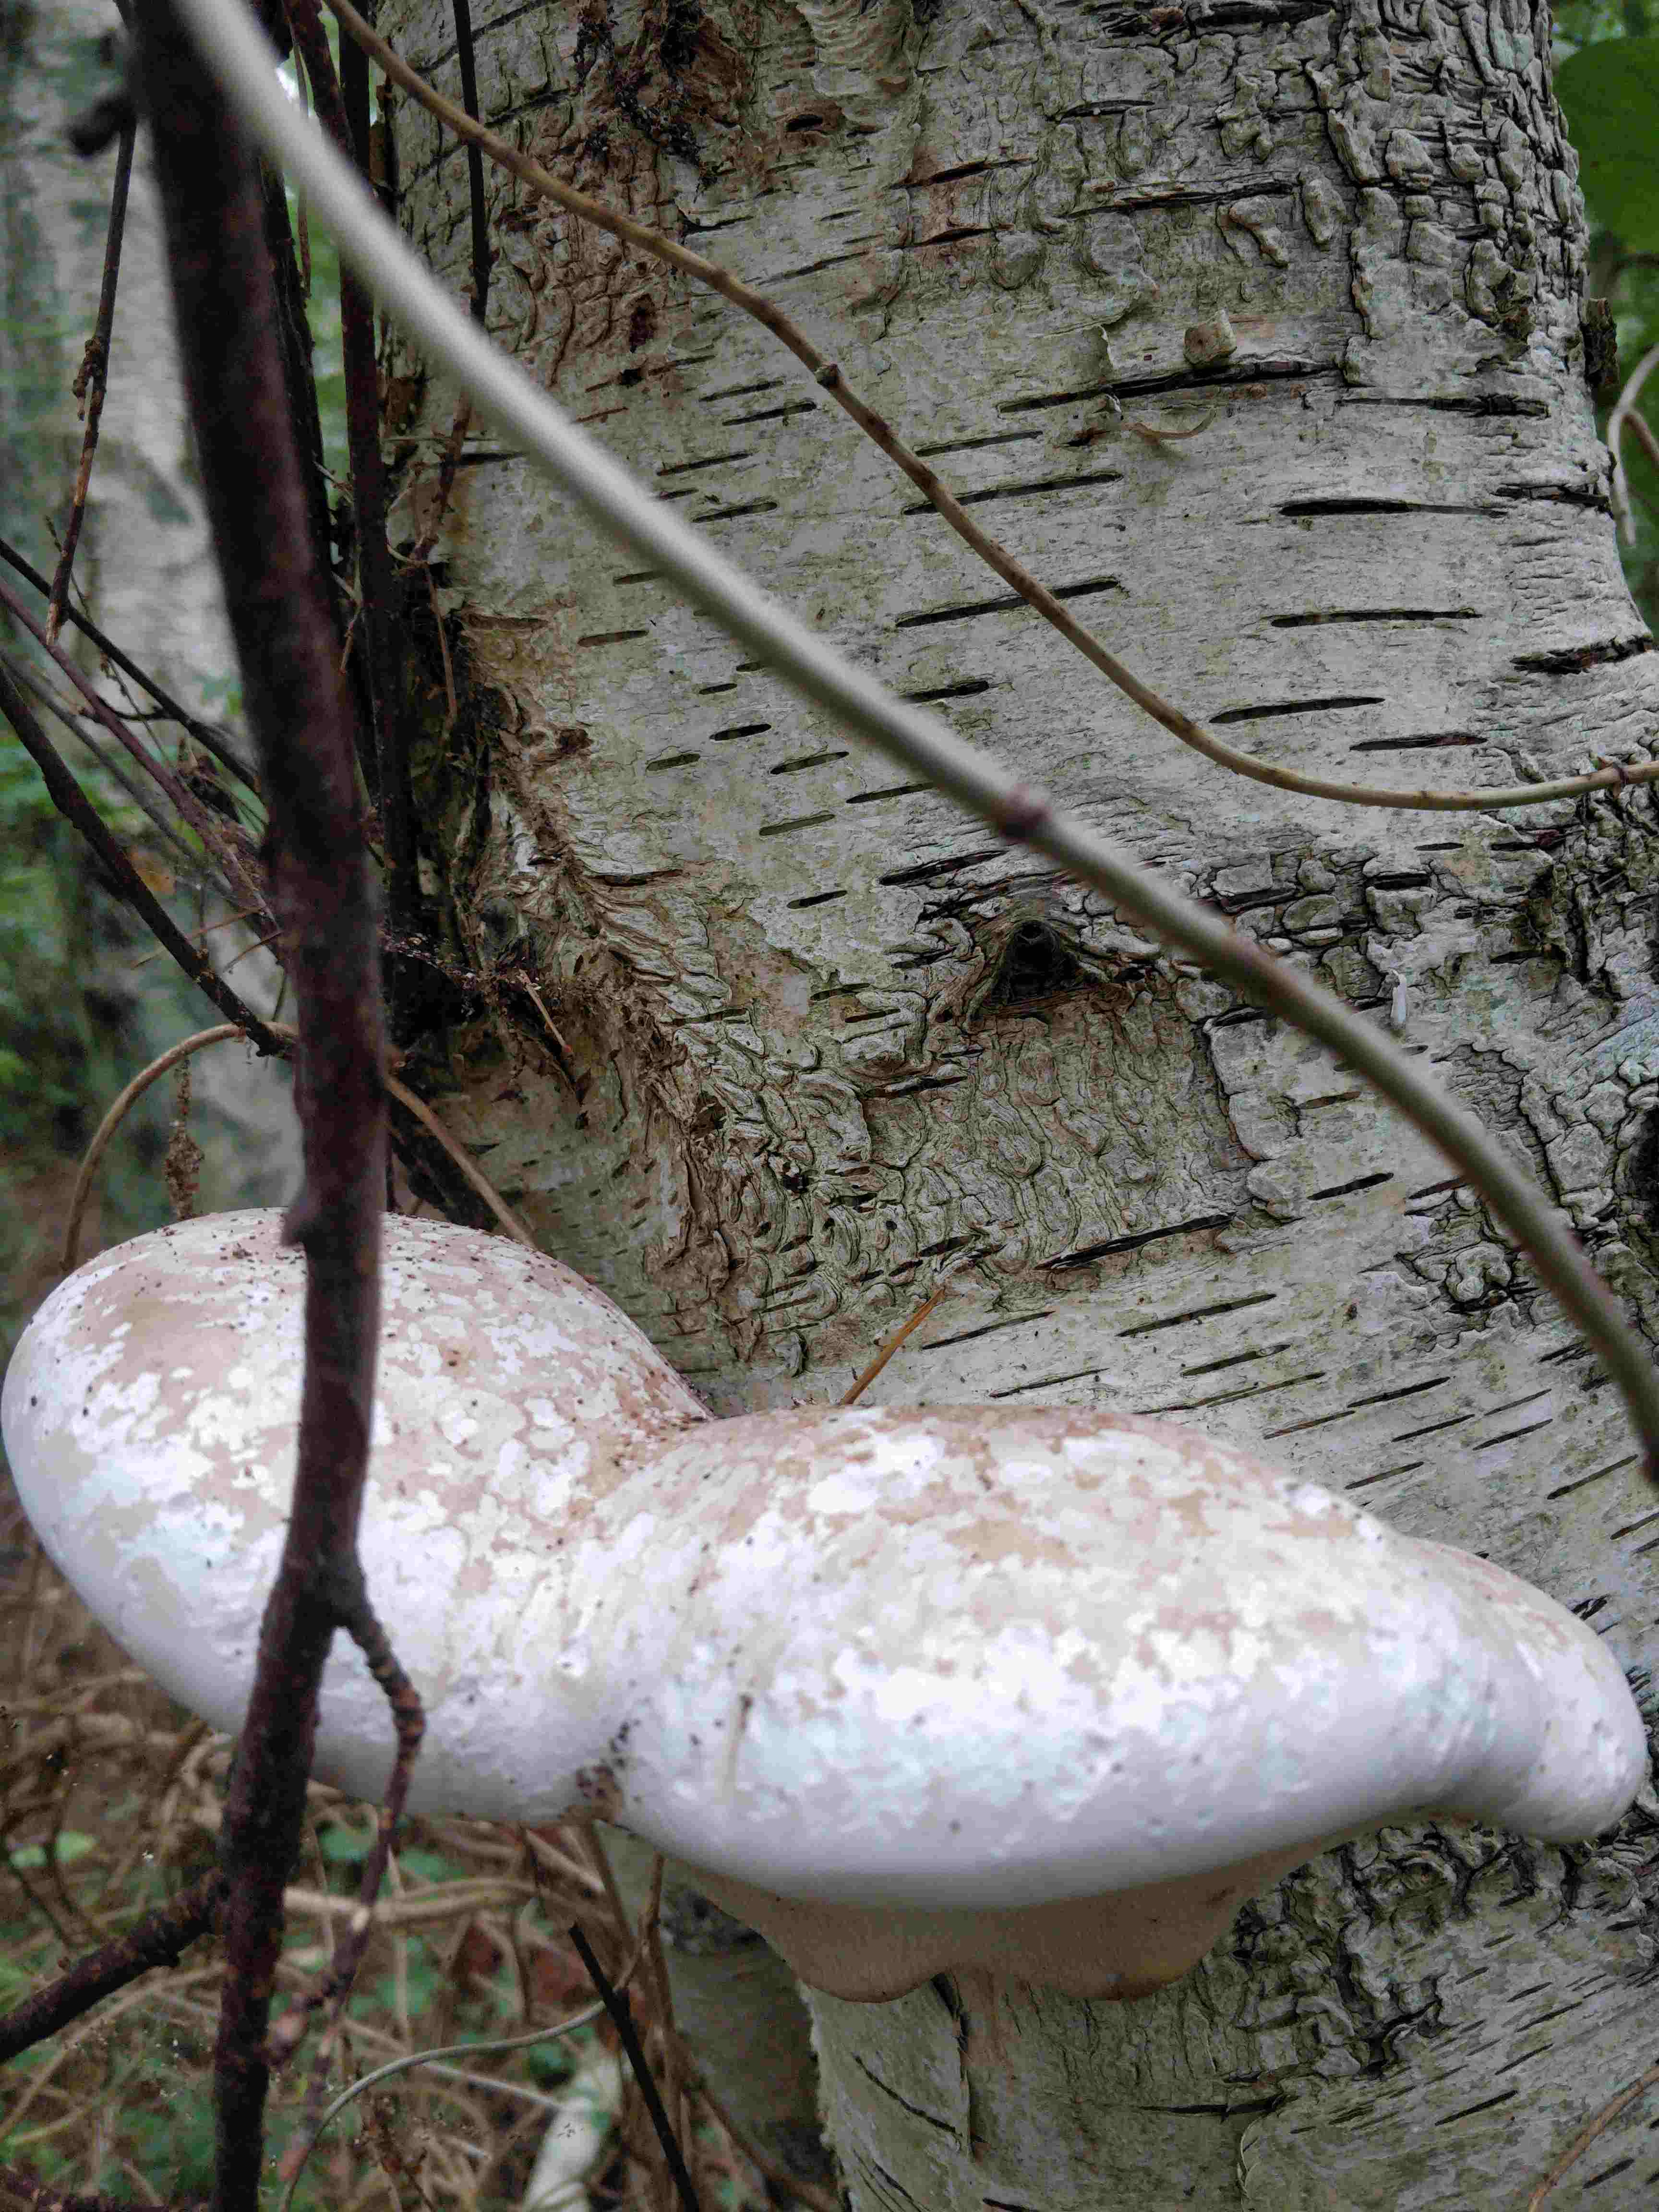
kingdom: Fungi
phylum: Basidiomycota
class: Agaricomycetes
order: Polyporales
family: Fomitopsidaceae
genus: Fomitopsis
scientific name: Fomitopsis betulina
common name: birkeporesvamp
